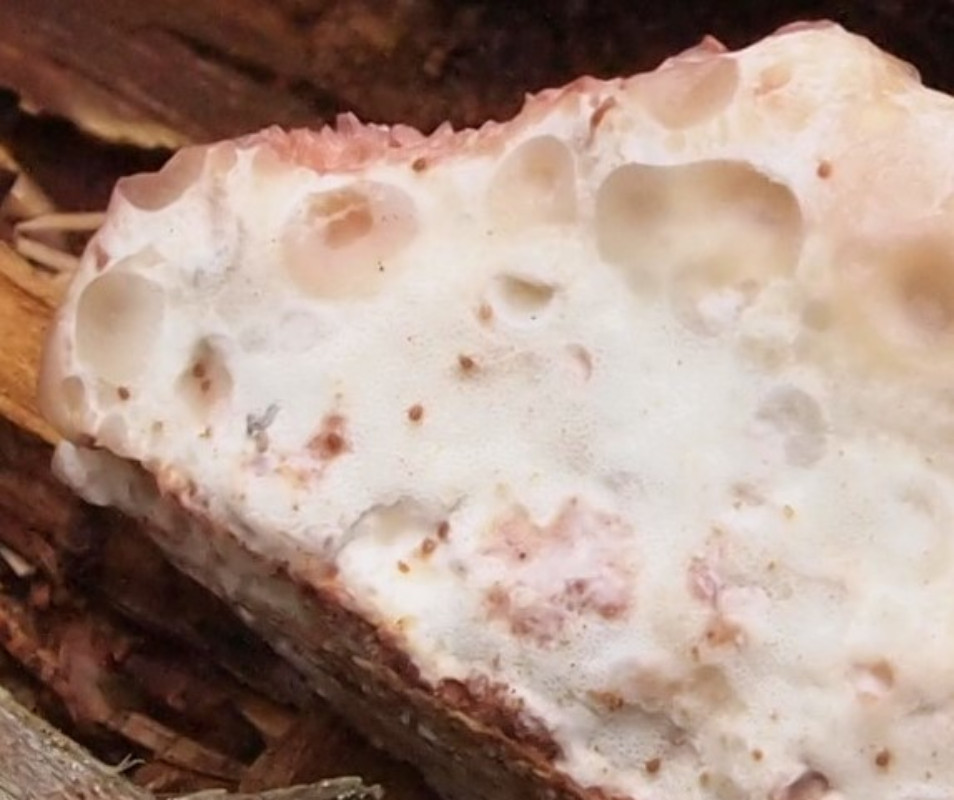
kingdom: Fungi
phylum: Basidiomycota
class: Agaricomycetes
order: Polyporales
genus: Calcipostia
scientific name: Calcipostia guttulata
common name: dråbe-kødporesvamp
